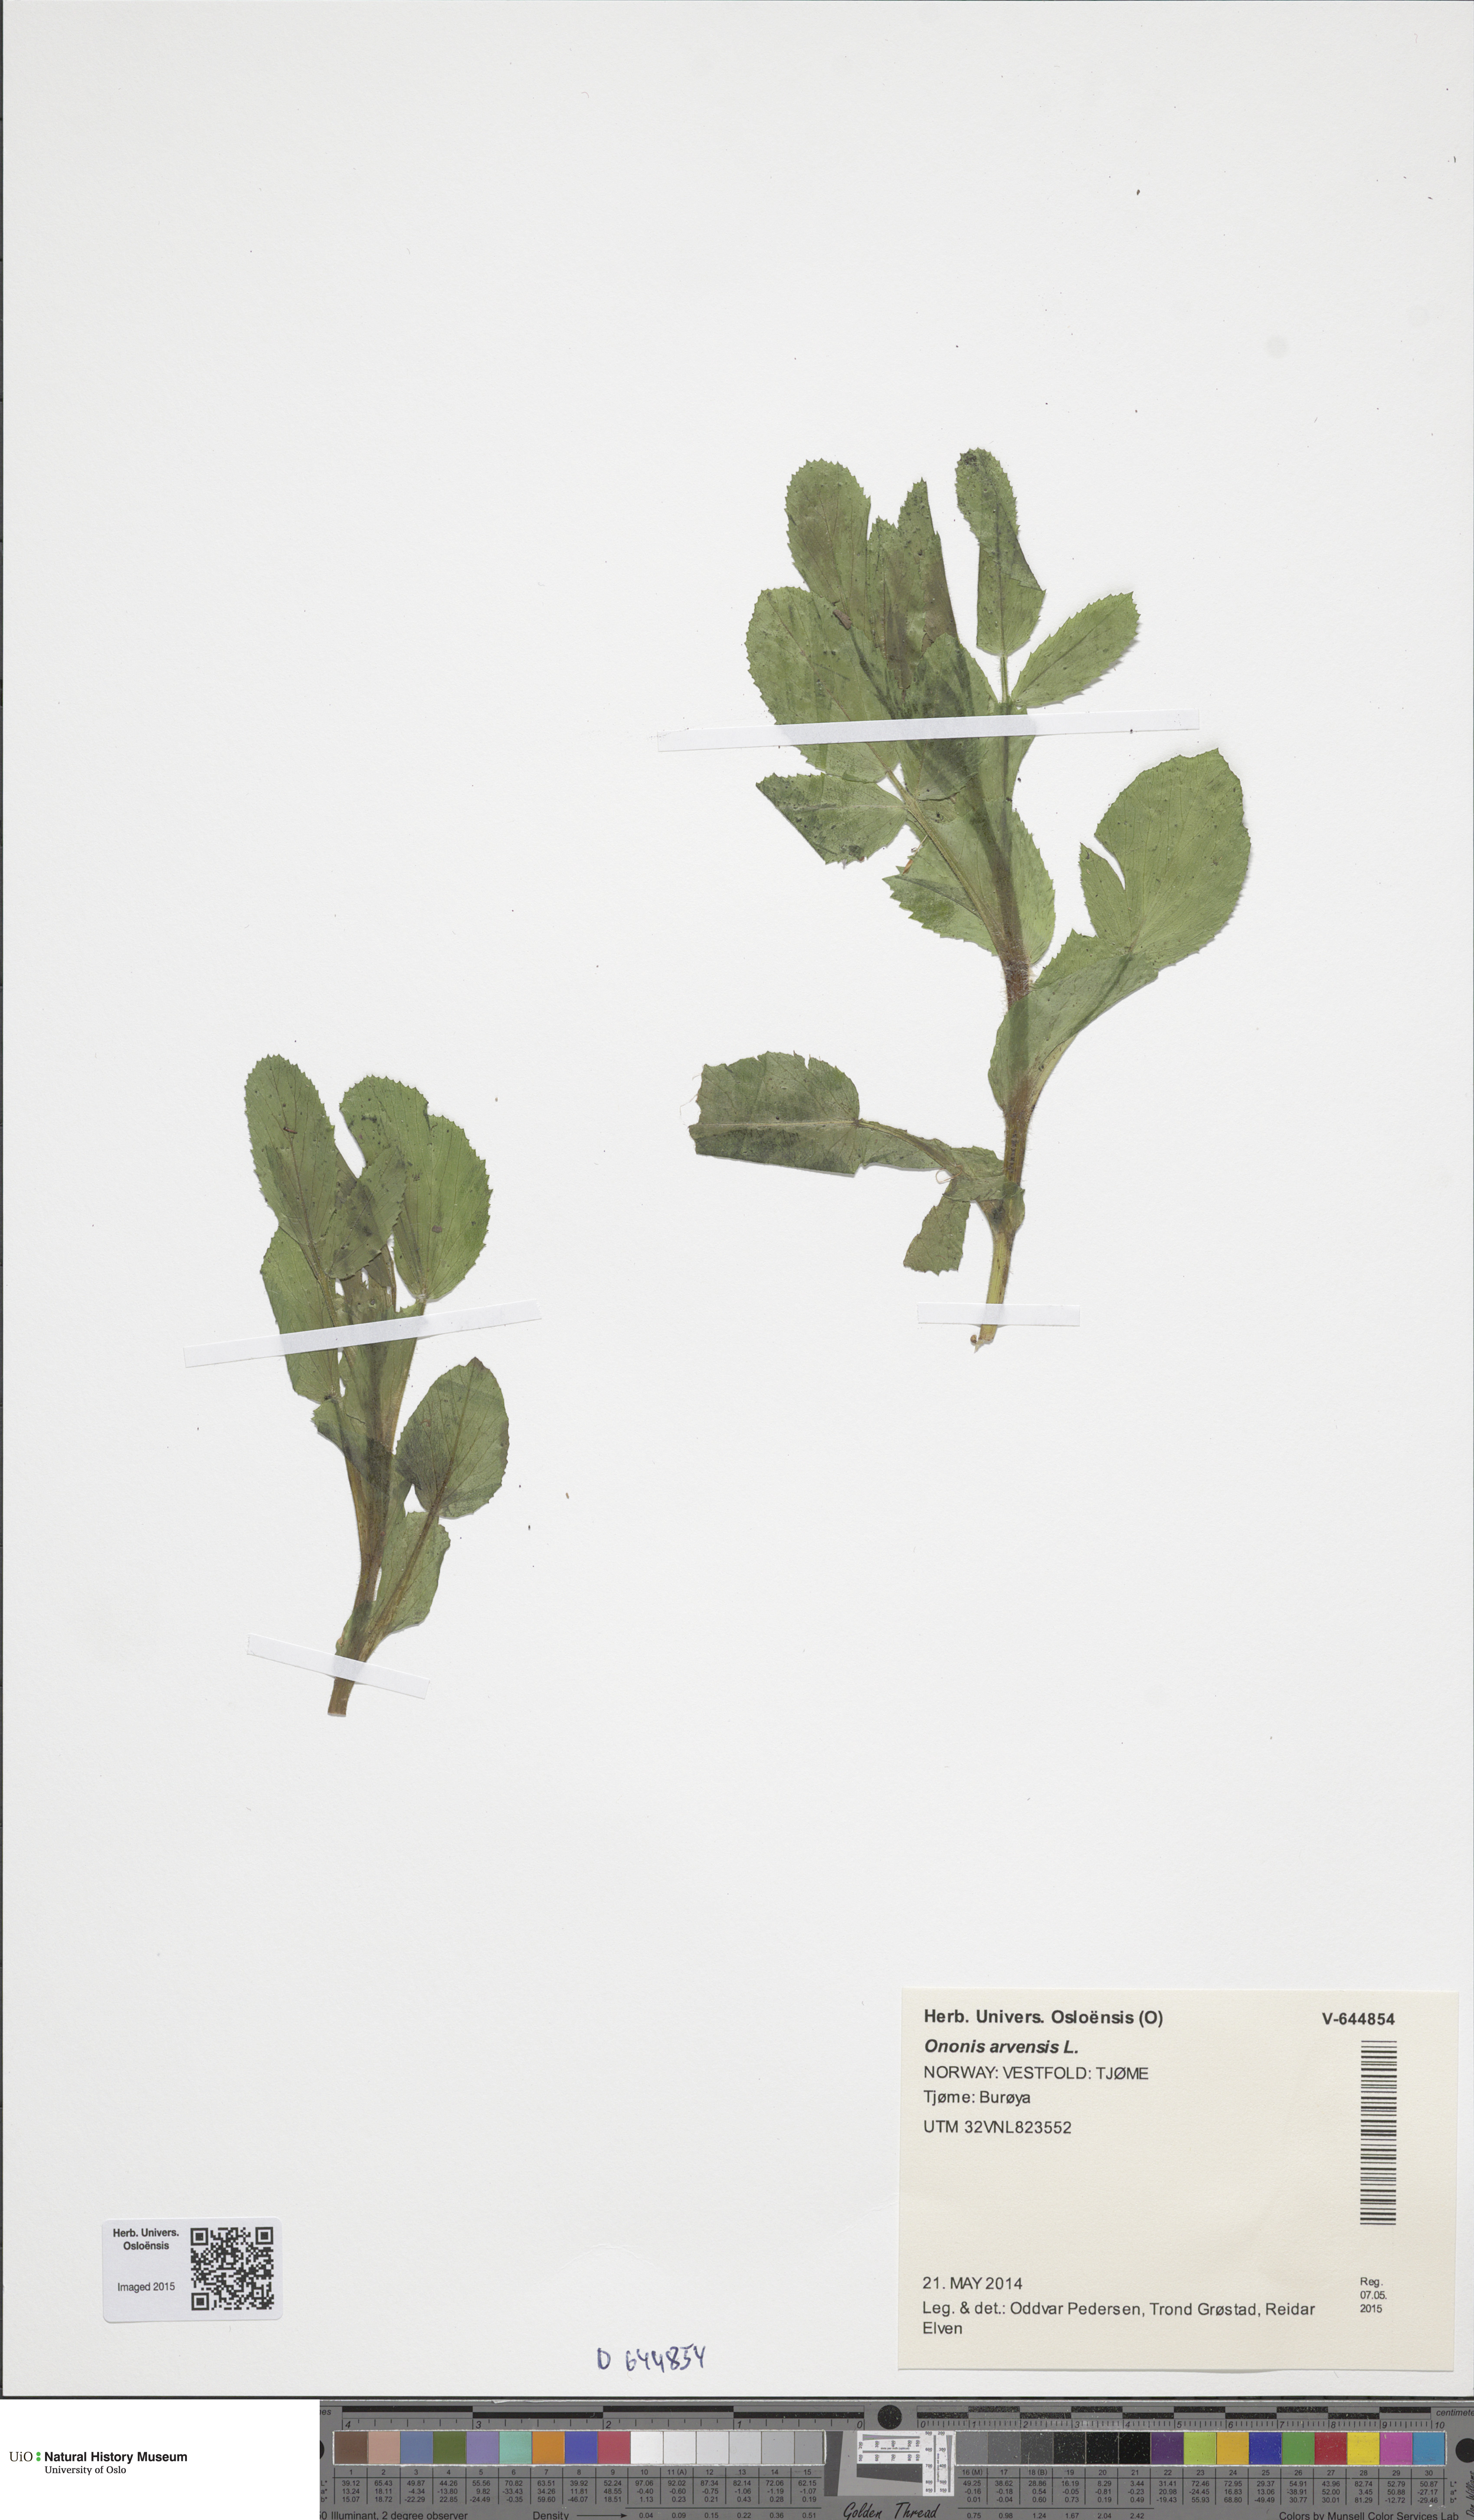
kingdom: Plantae
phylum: Tracheophyta
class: Magnoliopsida
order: Fabales
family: Fabaceae
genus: Ononis
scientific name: Ononis arvensis
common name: Field restharrow
